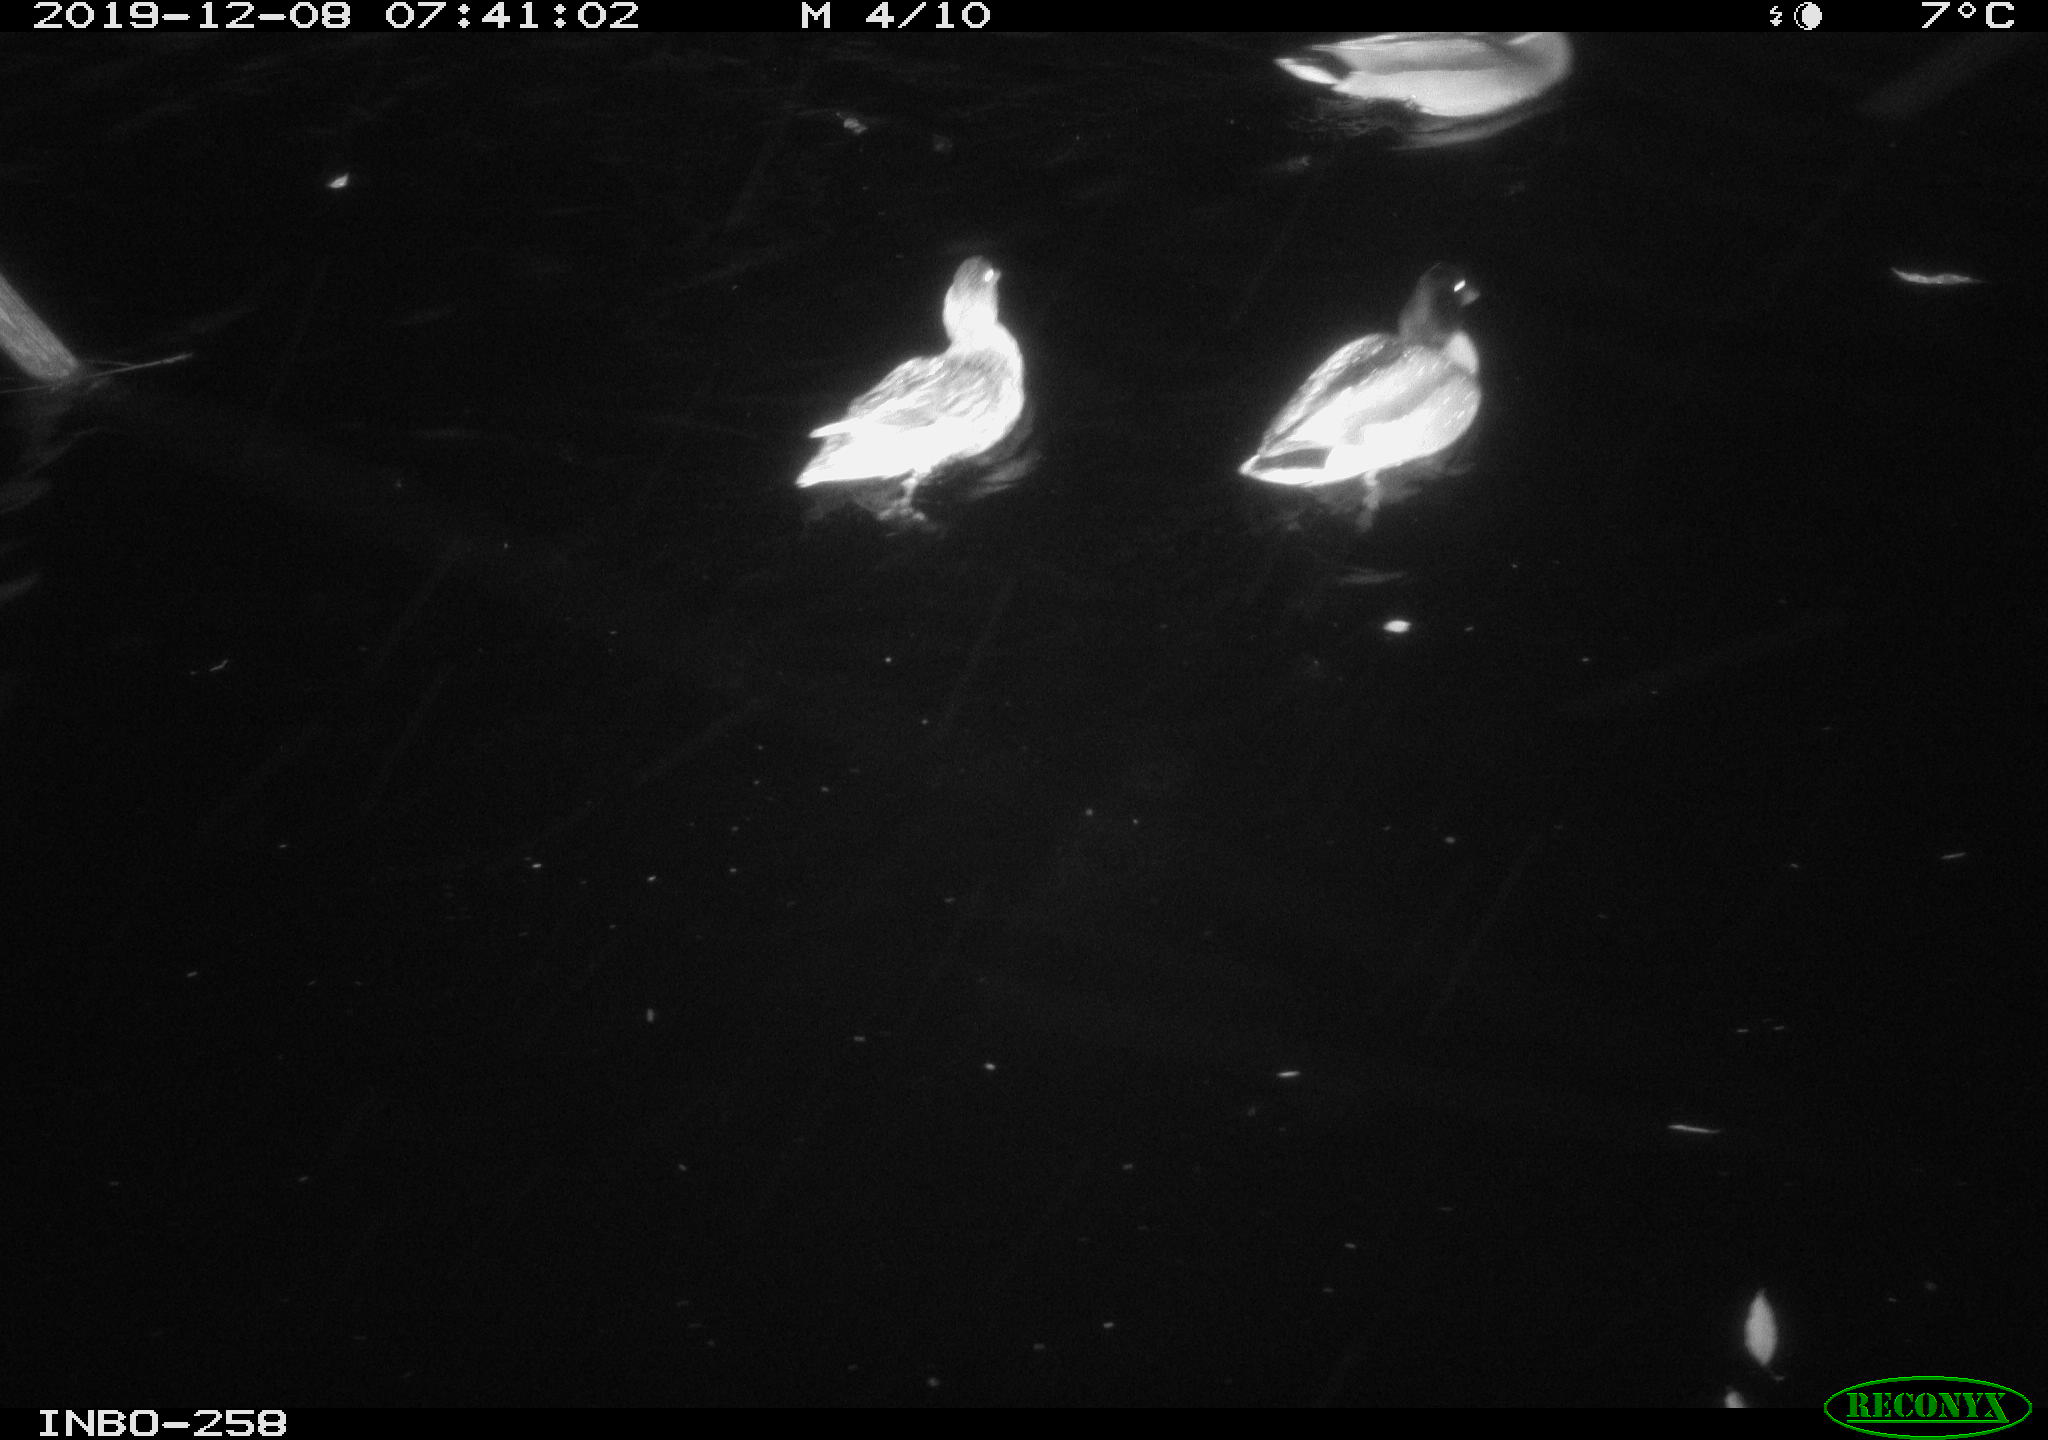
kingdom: Animalia
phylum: Chordata
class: Aves
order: Anseriformes
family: Anatidae
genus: Anas
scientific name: Anas platyrhynchos
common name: Mallard
